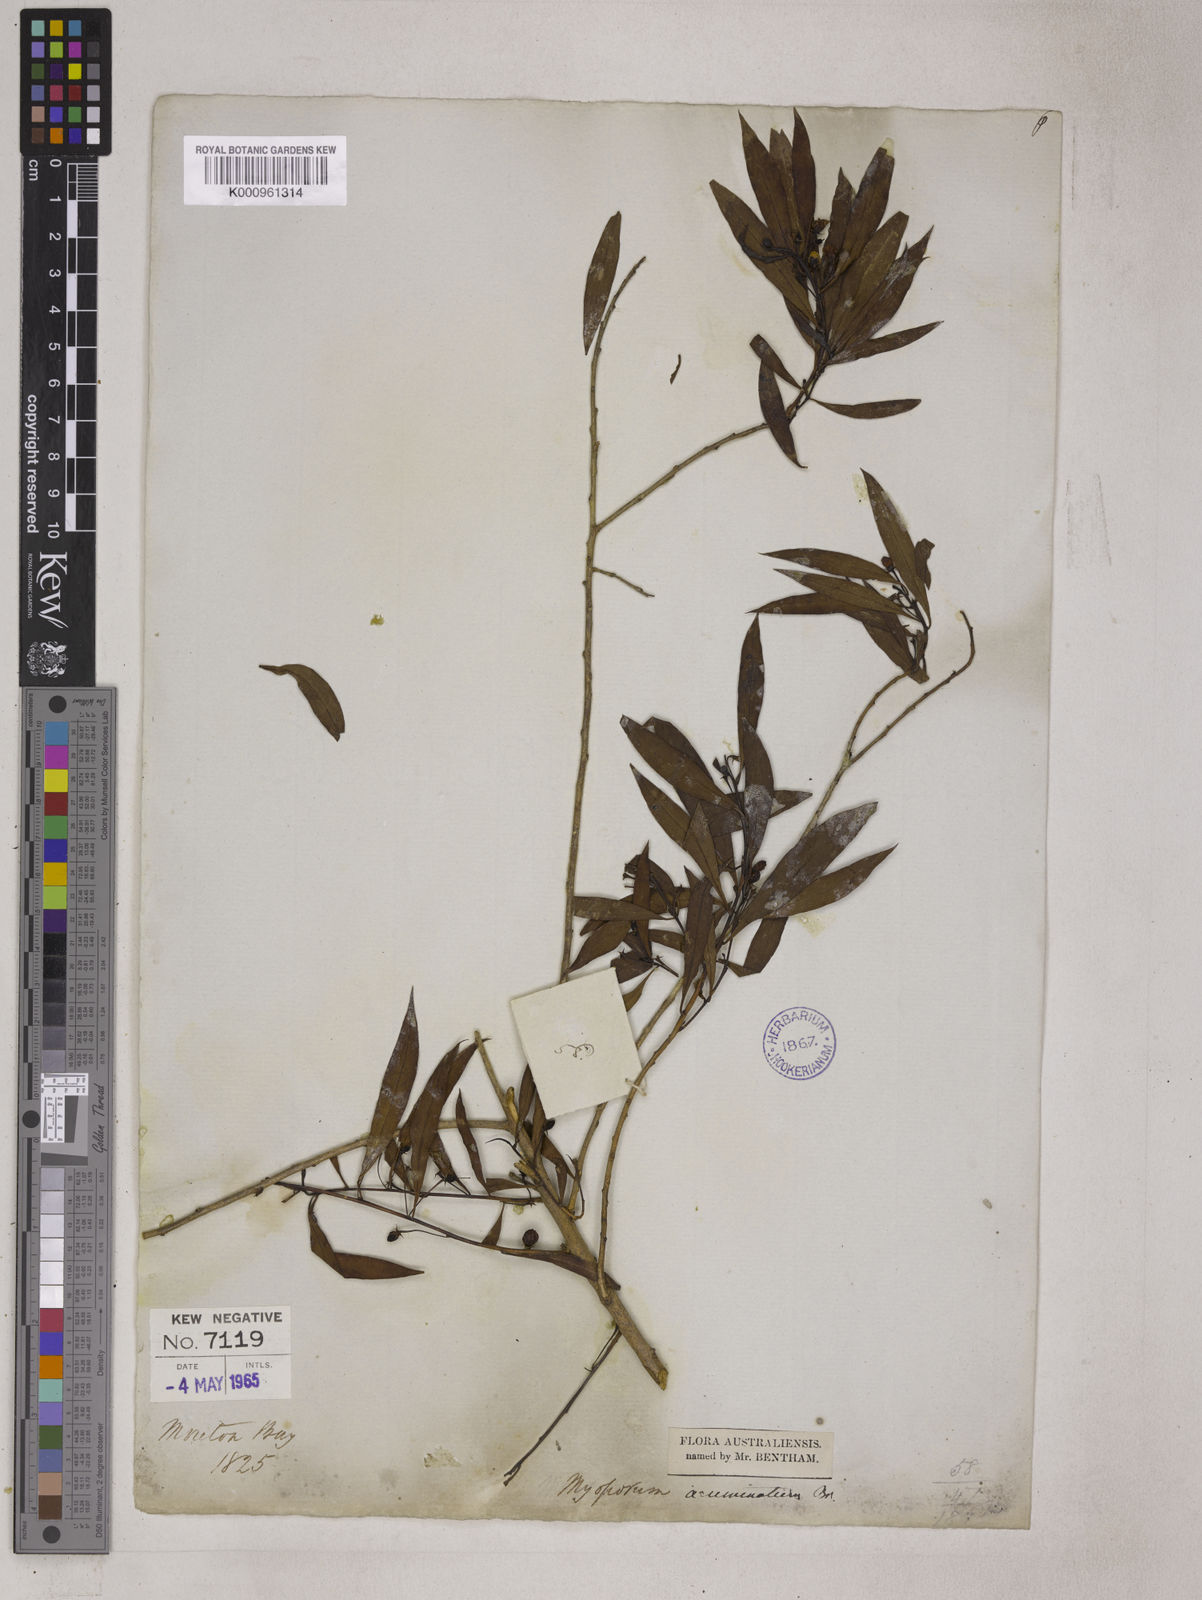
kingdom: Plantae
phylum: Tracheophyta
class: Magnoliopsida
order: Lamiales
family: Scrophulariaceae
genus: Myoporum
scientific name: Myoporum montanum
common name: Waterbush
